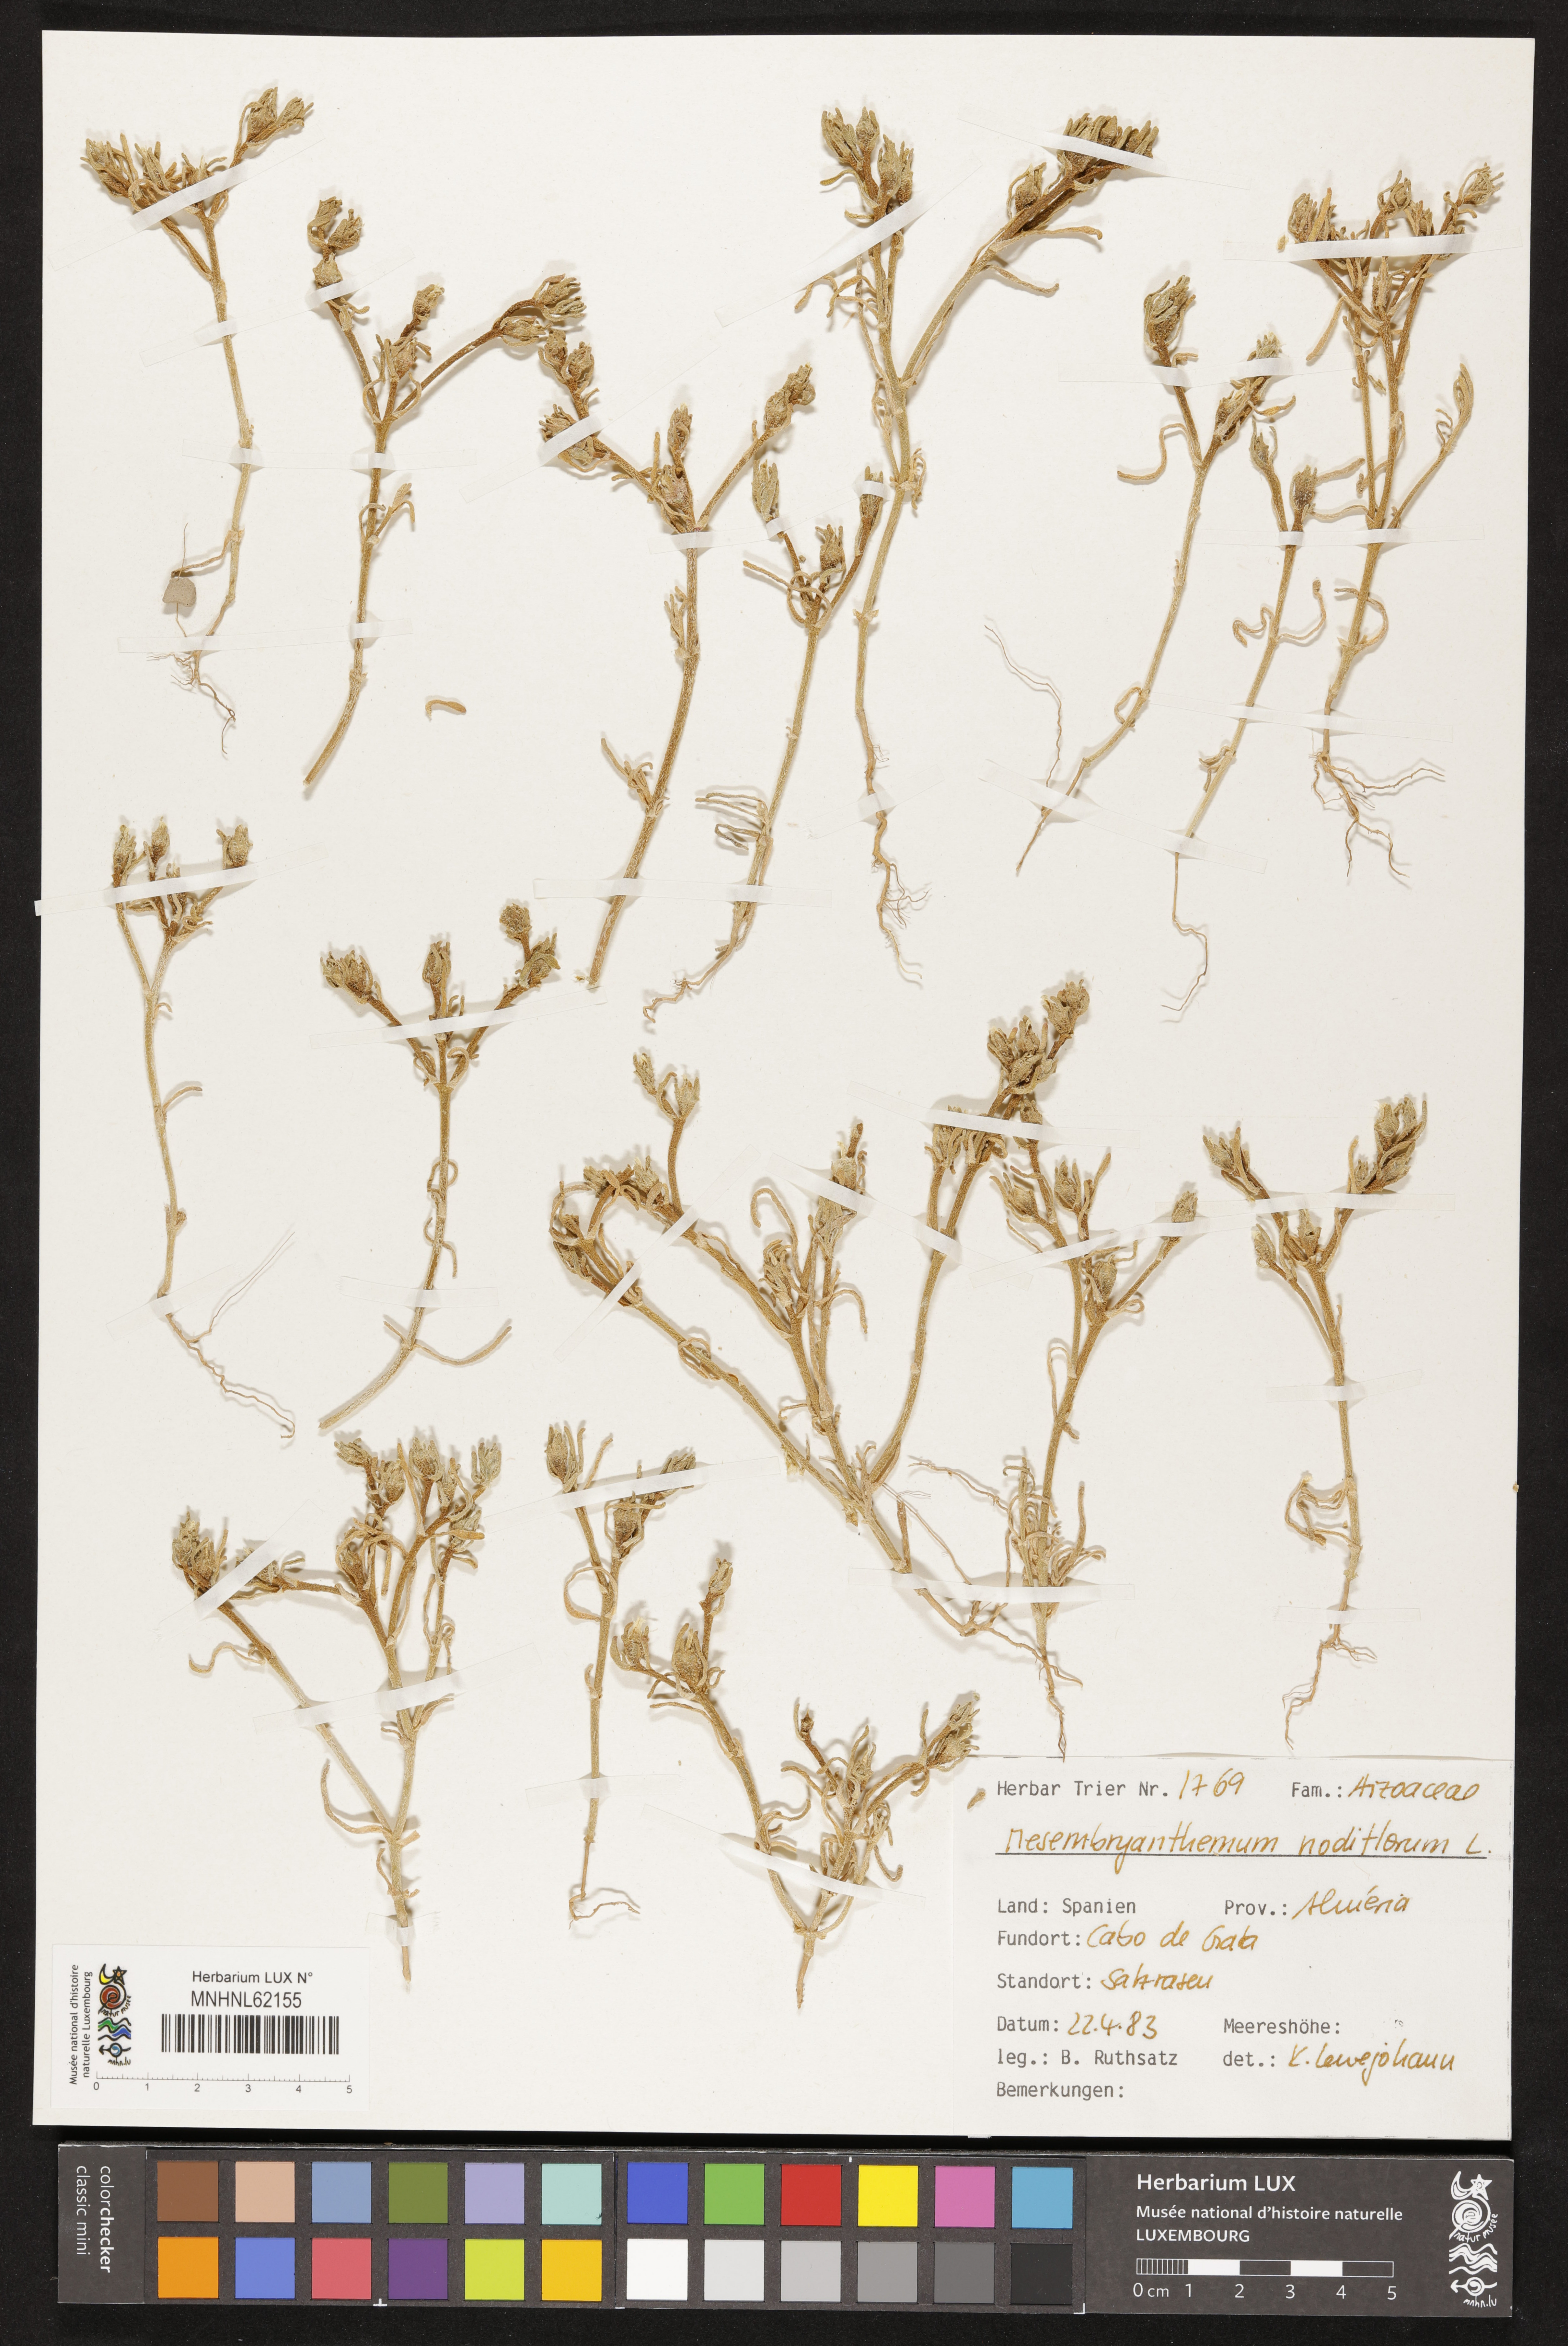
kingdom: Plantae
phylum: Tracheophyta
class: Magnoliopsida
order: Caryophyllales
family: Aizoaceae
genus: Mesembryanthemum
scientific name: Mesembryanthemum nodiflorum
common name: Slenderleaf iceplant
